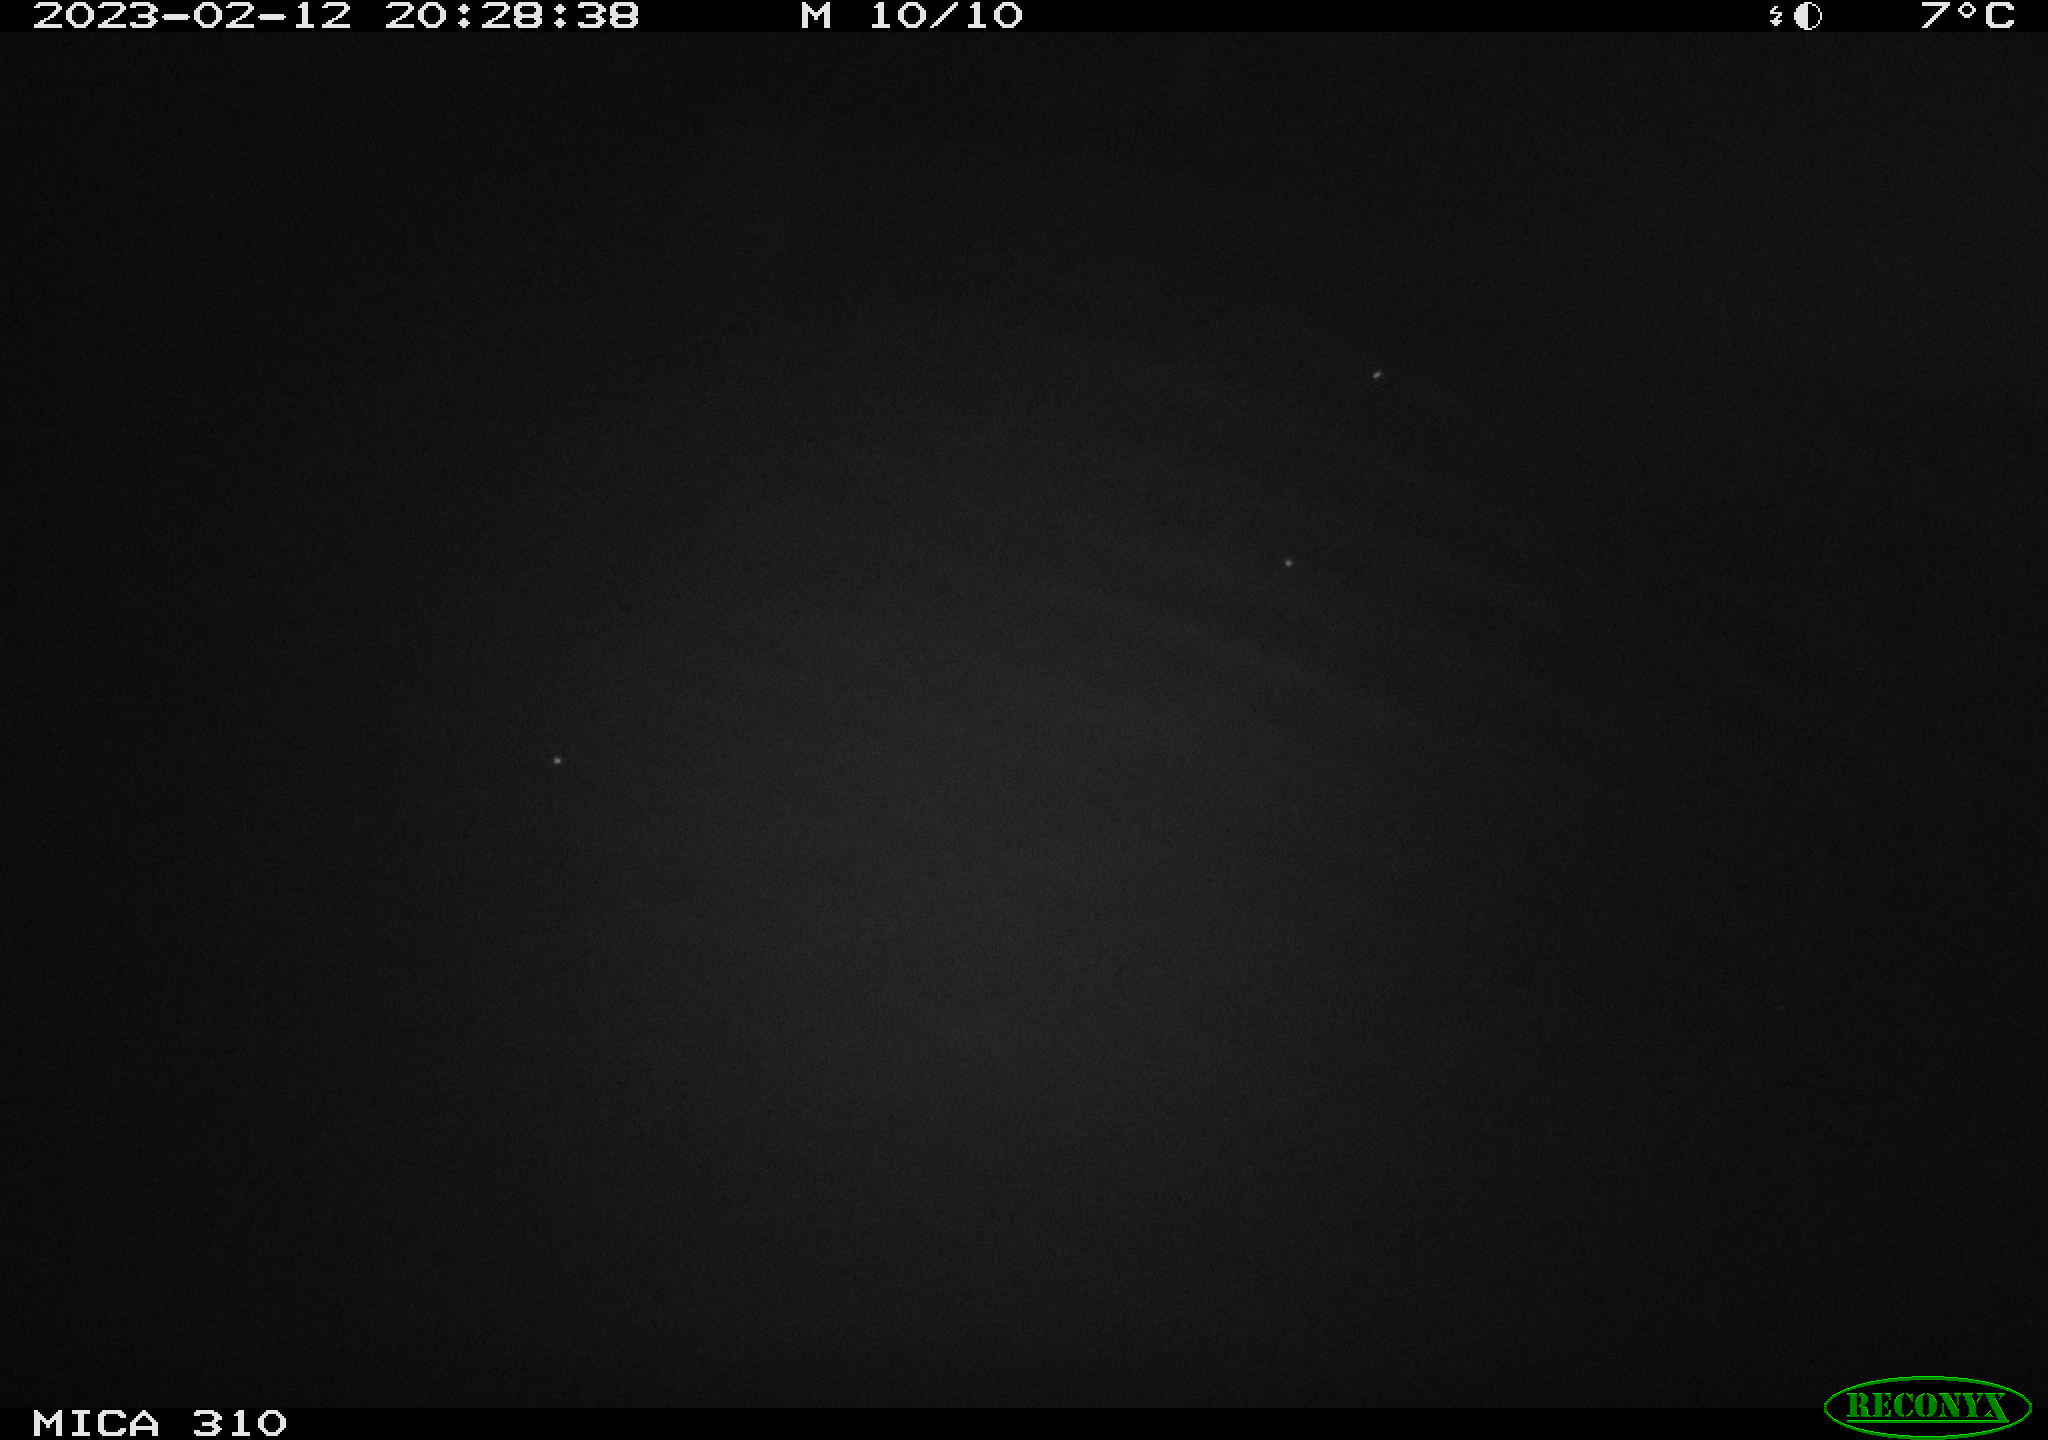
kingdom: Animalia
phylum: Chordata
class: Mammalia
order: Rodentia
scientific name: Rodentia
